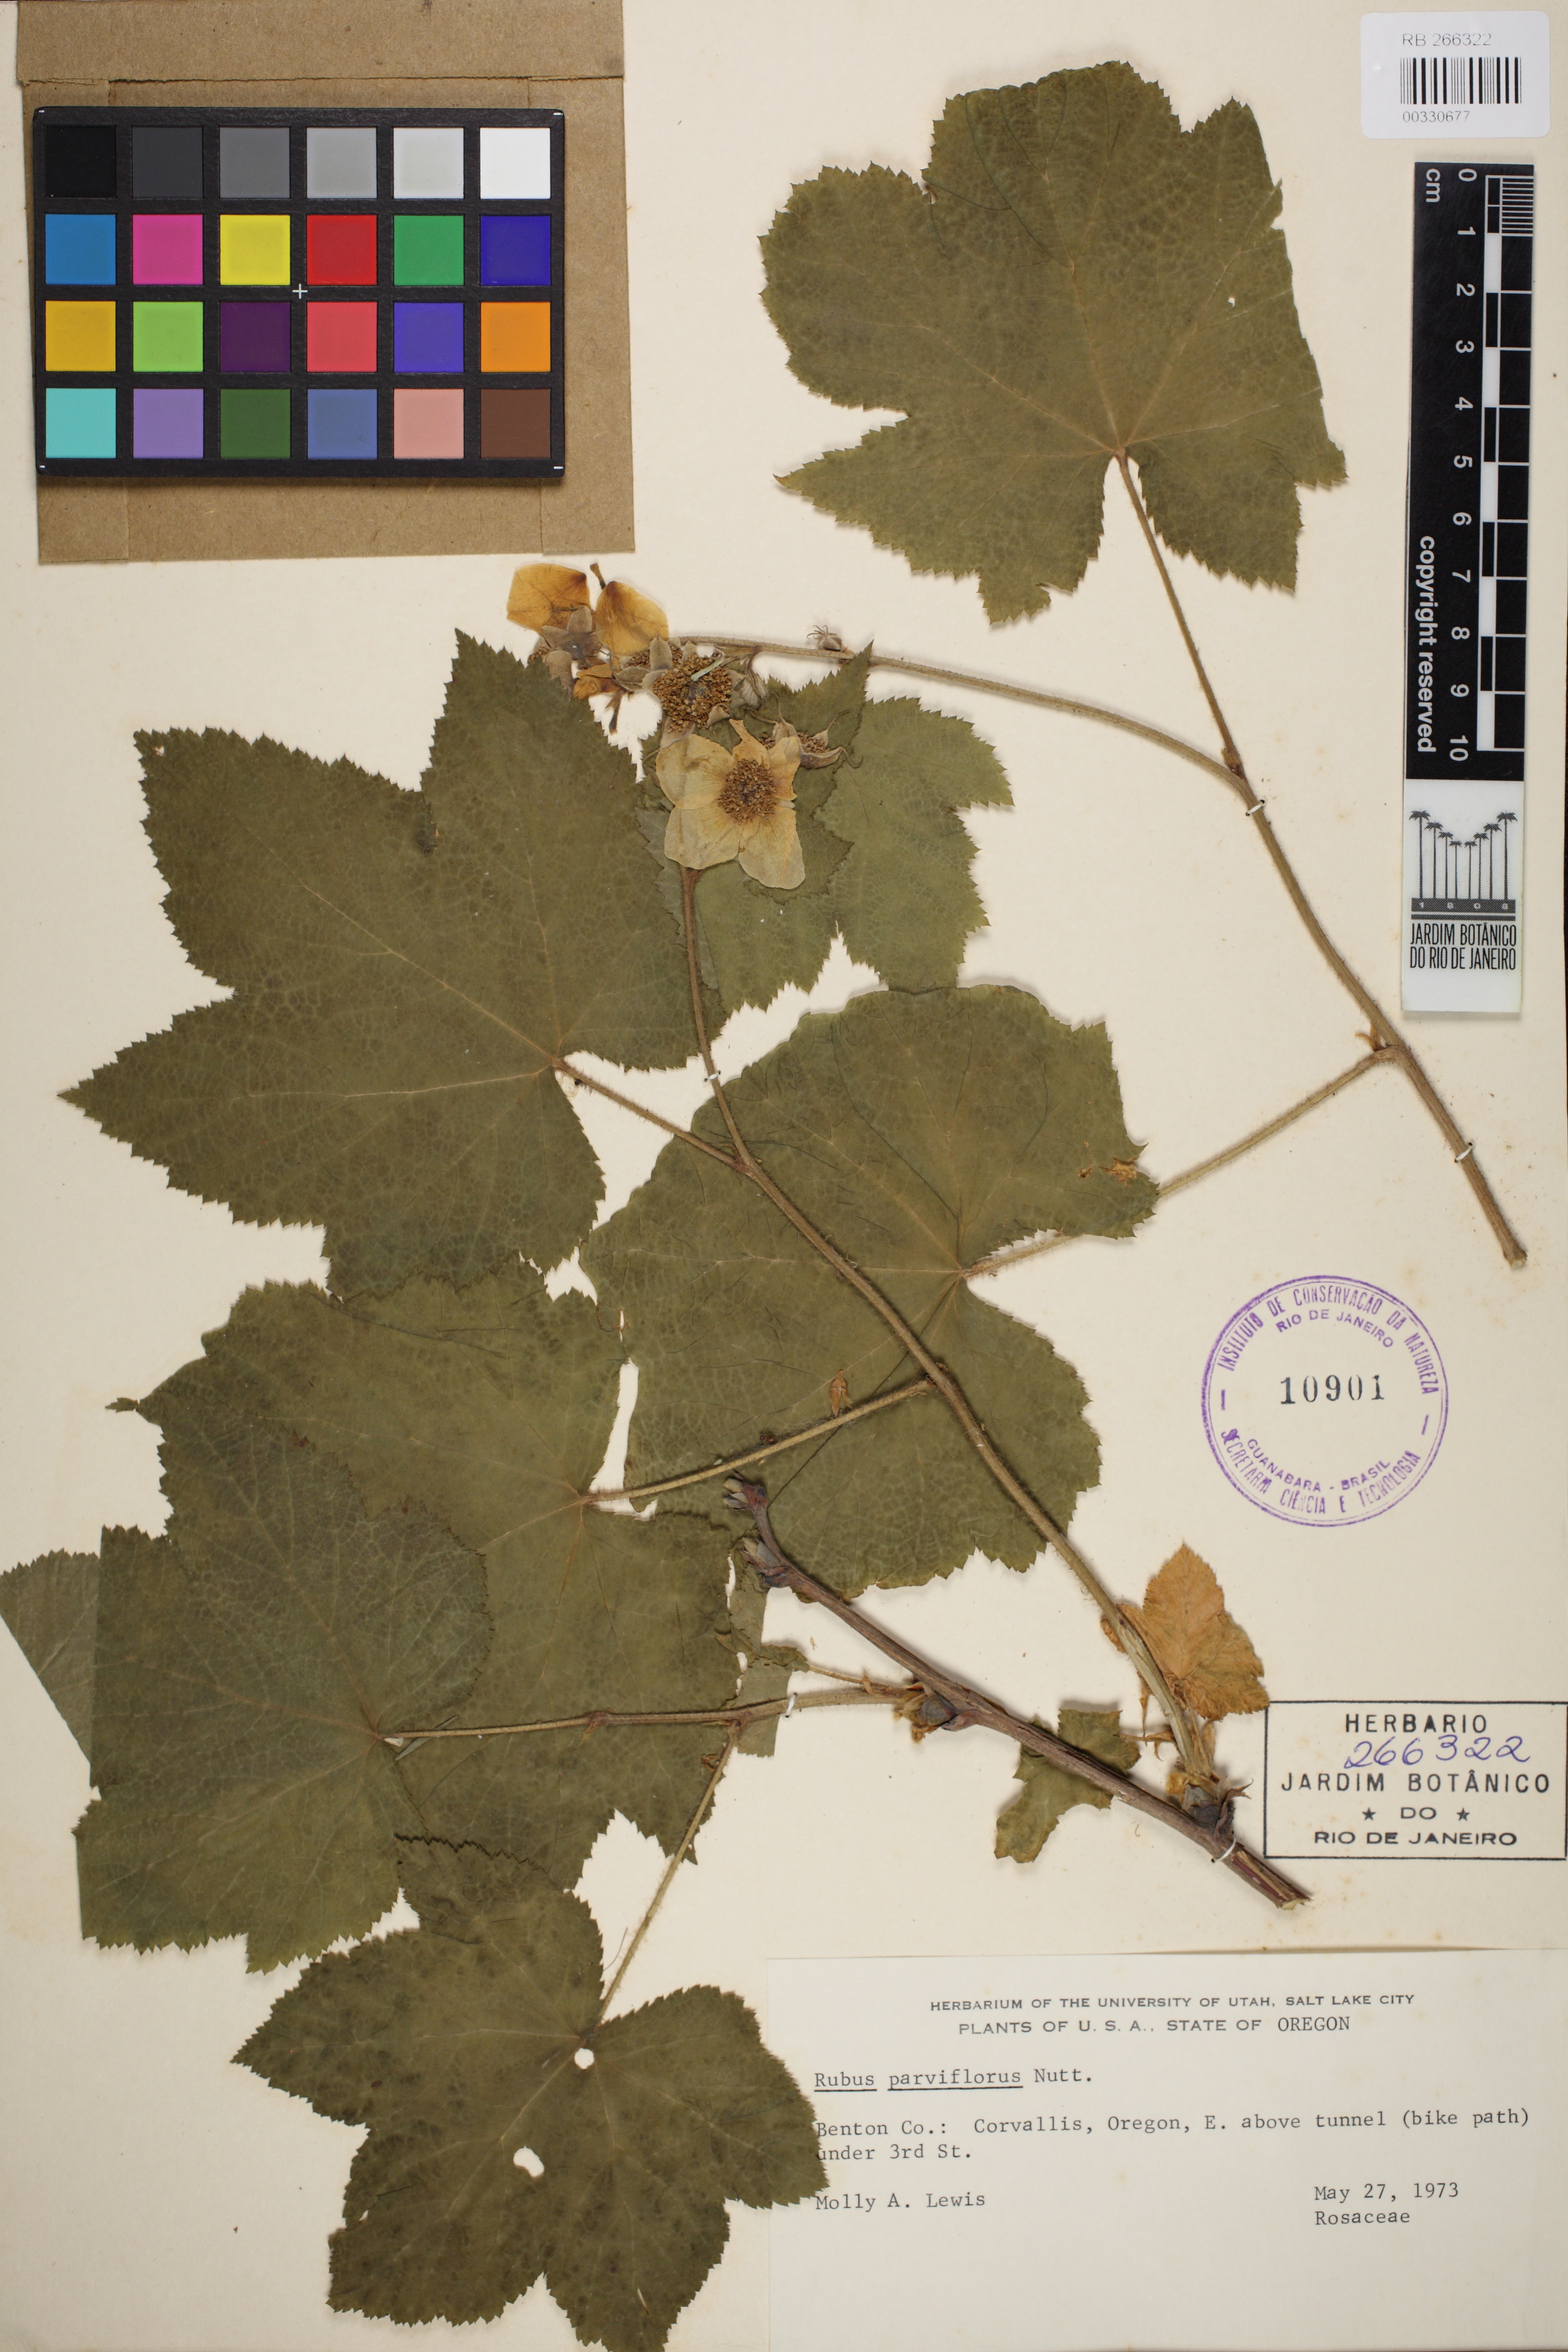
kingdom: Plantae
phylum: Tracheophyta
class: Magnoliopsida
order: Rosales
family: Rosaceae
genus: Rubus
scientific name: Rubus nutkanus
